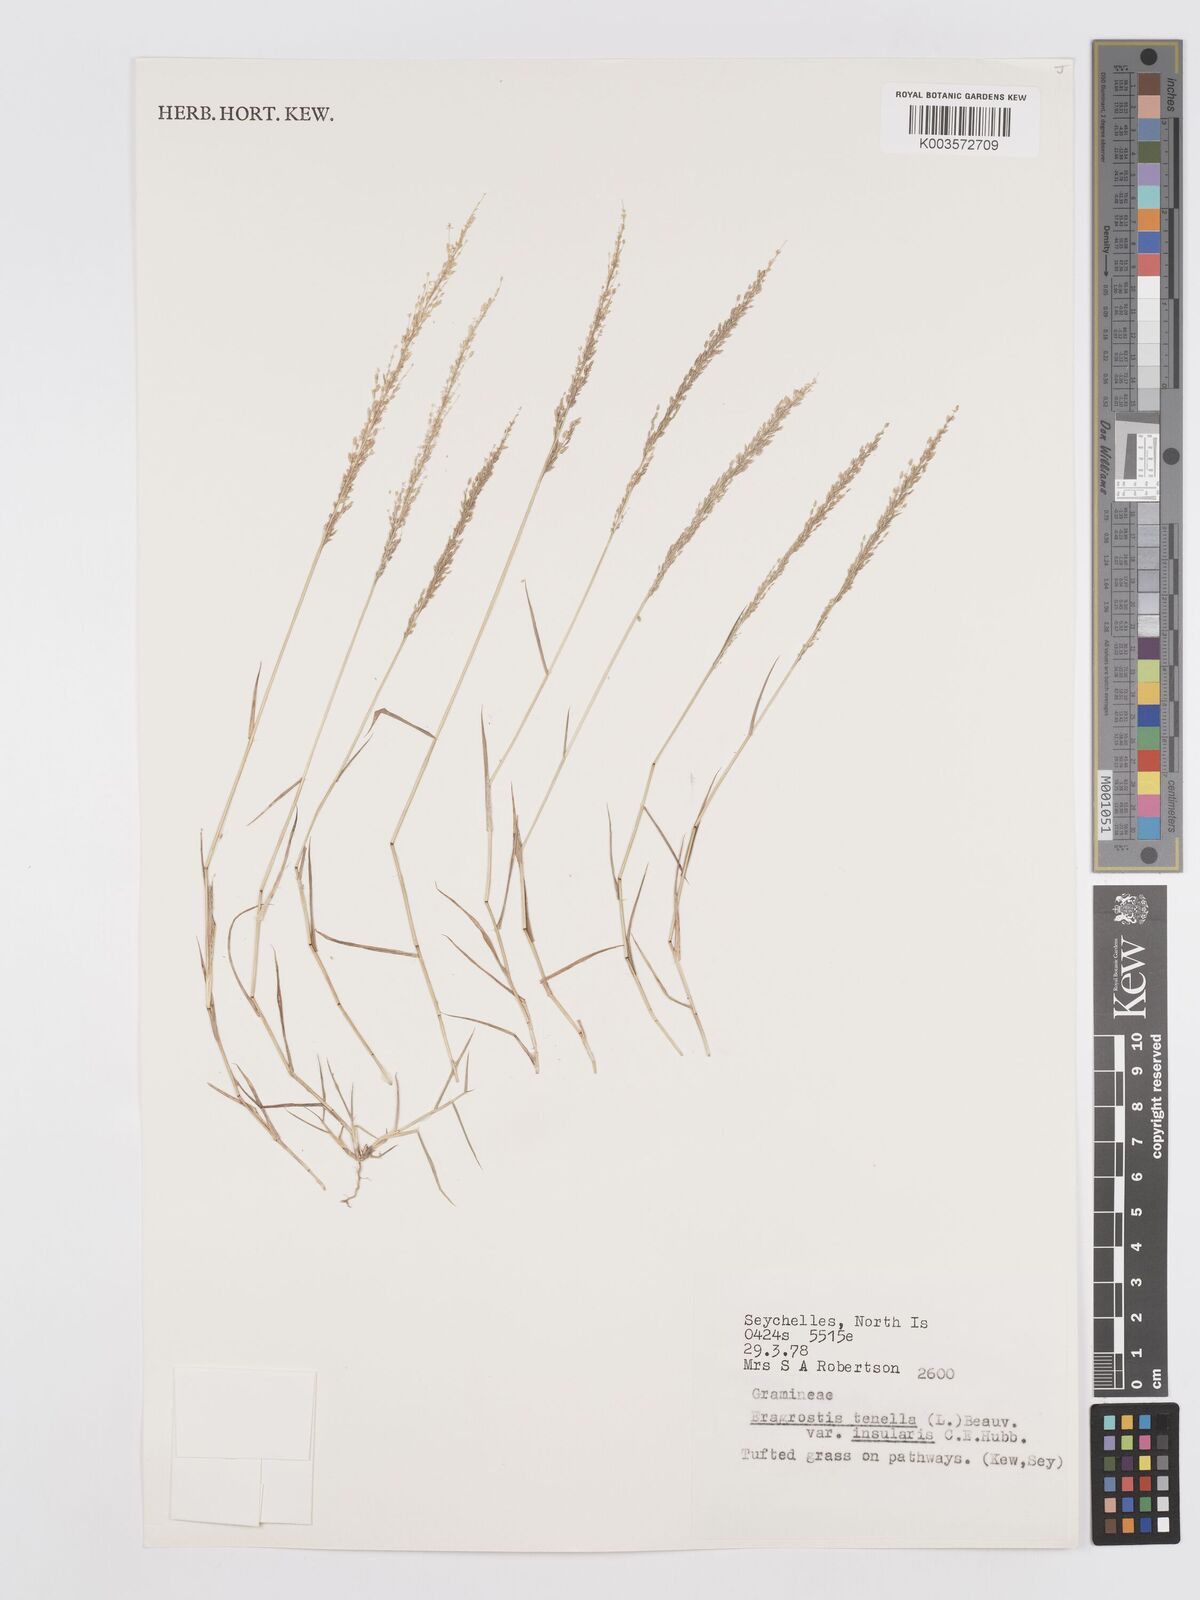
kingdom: Plantae
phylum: Tracheophyta
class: Liliopsida
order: Poales
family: Poaceae
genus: Eragrostis
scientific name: Eragrostis tenella
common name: Japanese lovegrass
